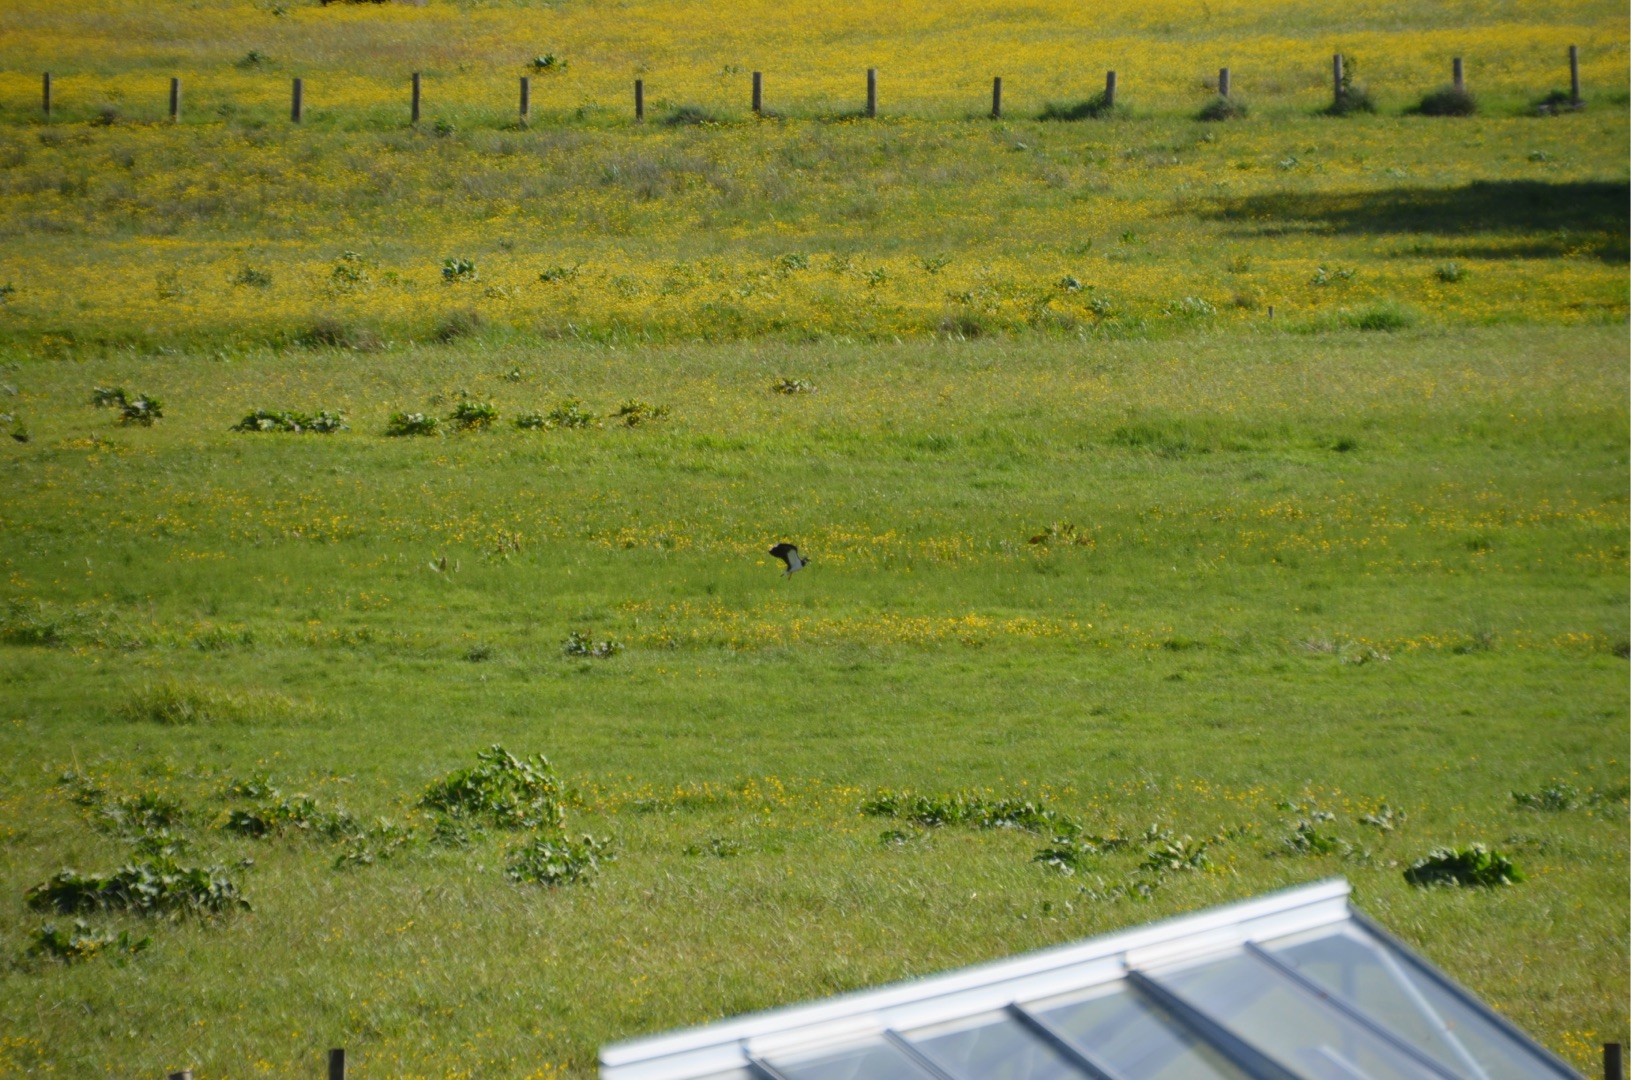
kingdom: Animalia
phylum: Chordata
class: Aves
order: Charadriiformes
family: Charadriidae
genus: Vanellus
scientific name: Vanellus vanellus
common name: Vibe
